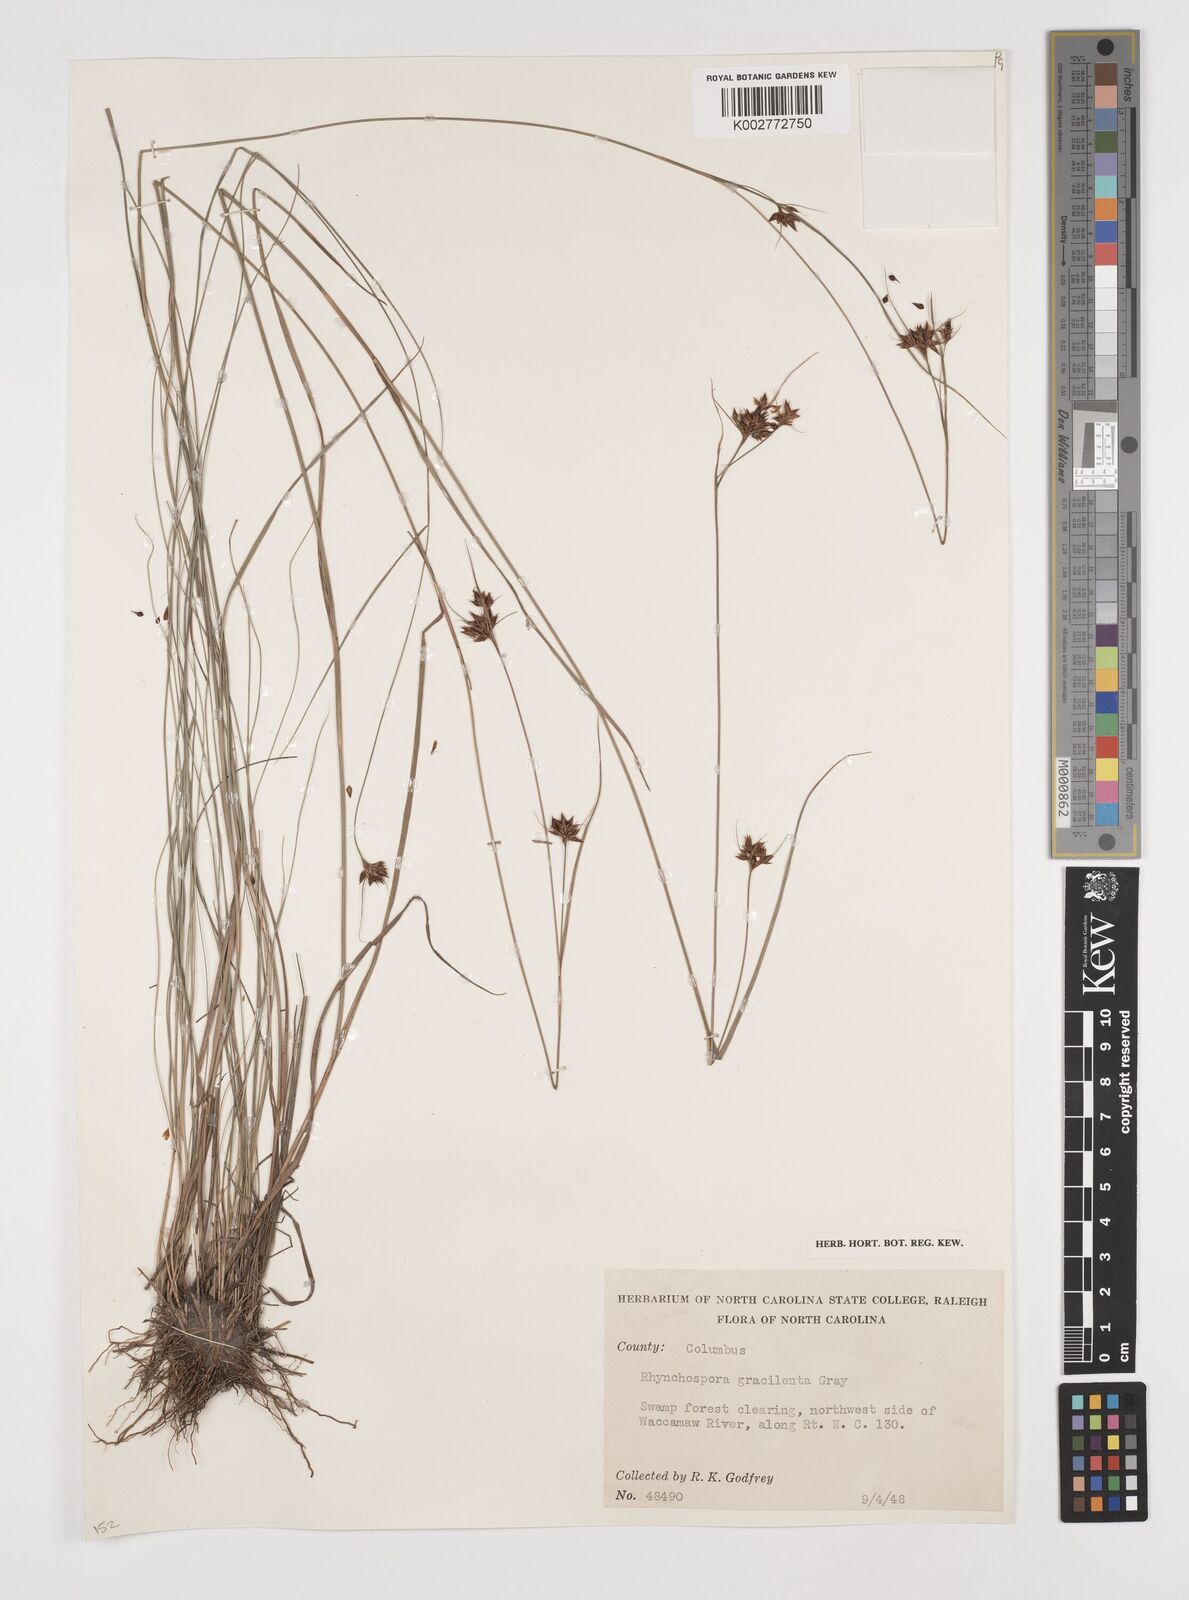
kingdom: Plantae
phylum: Tracheophyta
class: Liliopsida
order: Poales
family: Cyperaceae
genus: Rhynchospora
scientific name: Rhynchospora gracilenta
